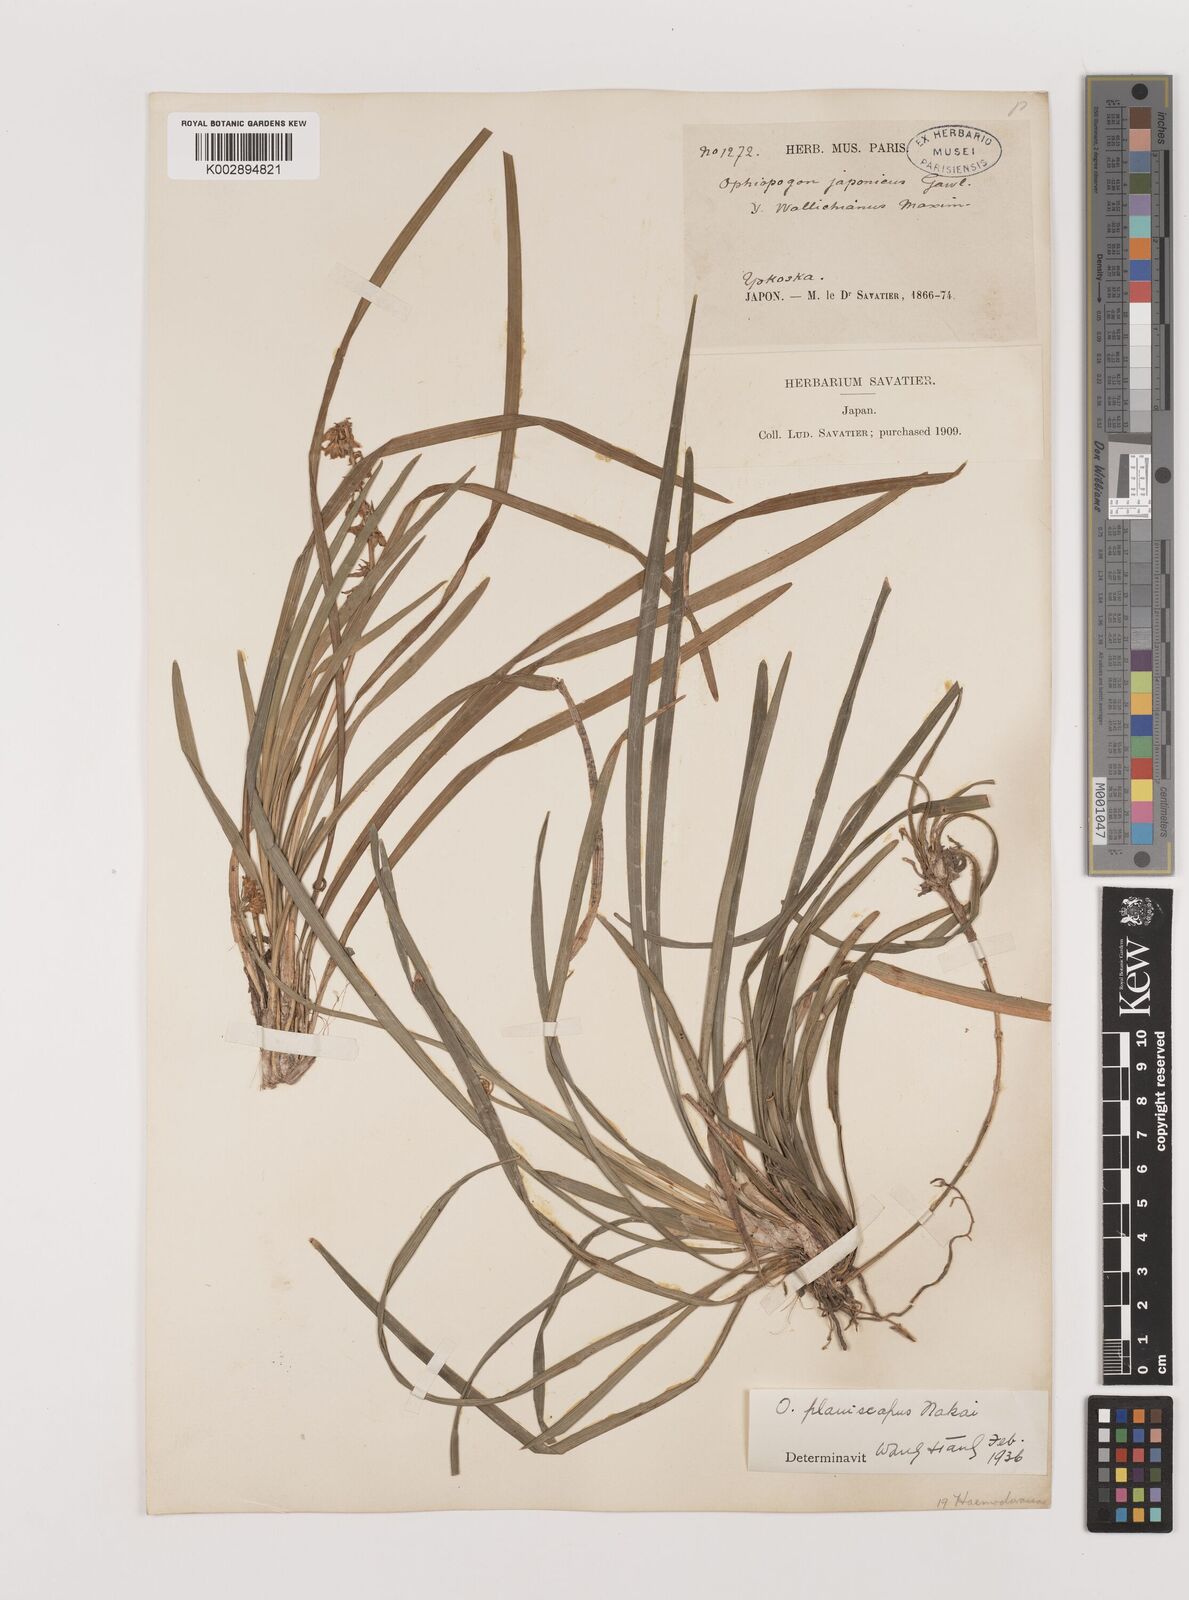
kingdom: Plantae
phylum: Tracheophyta
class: Liliopsida
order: Asparagales
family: Asparagaceae
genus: Ophiopogon
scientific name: Ophiopogon planiscapus
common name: Black mondo
